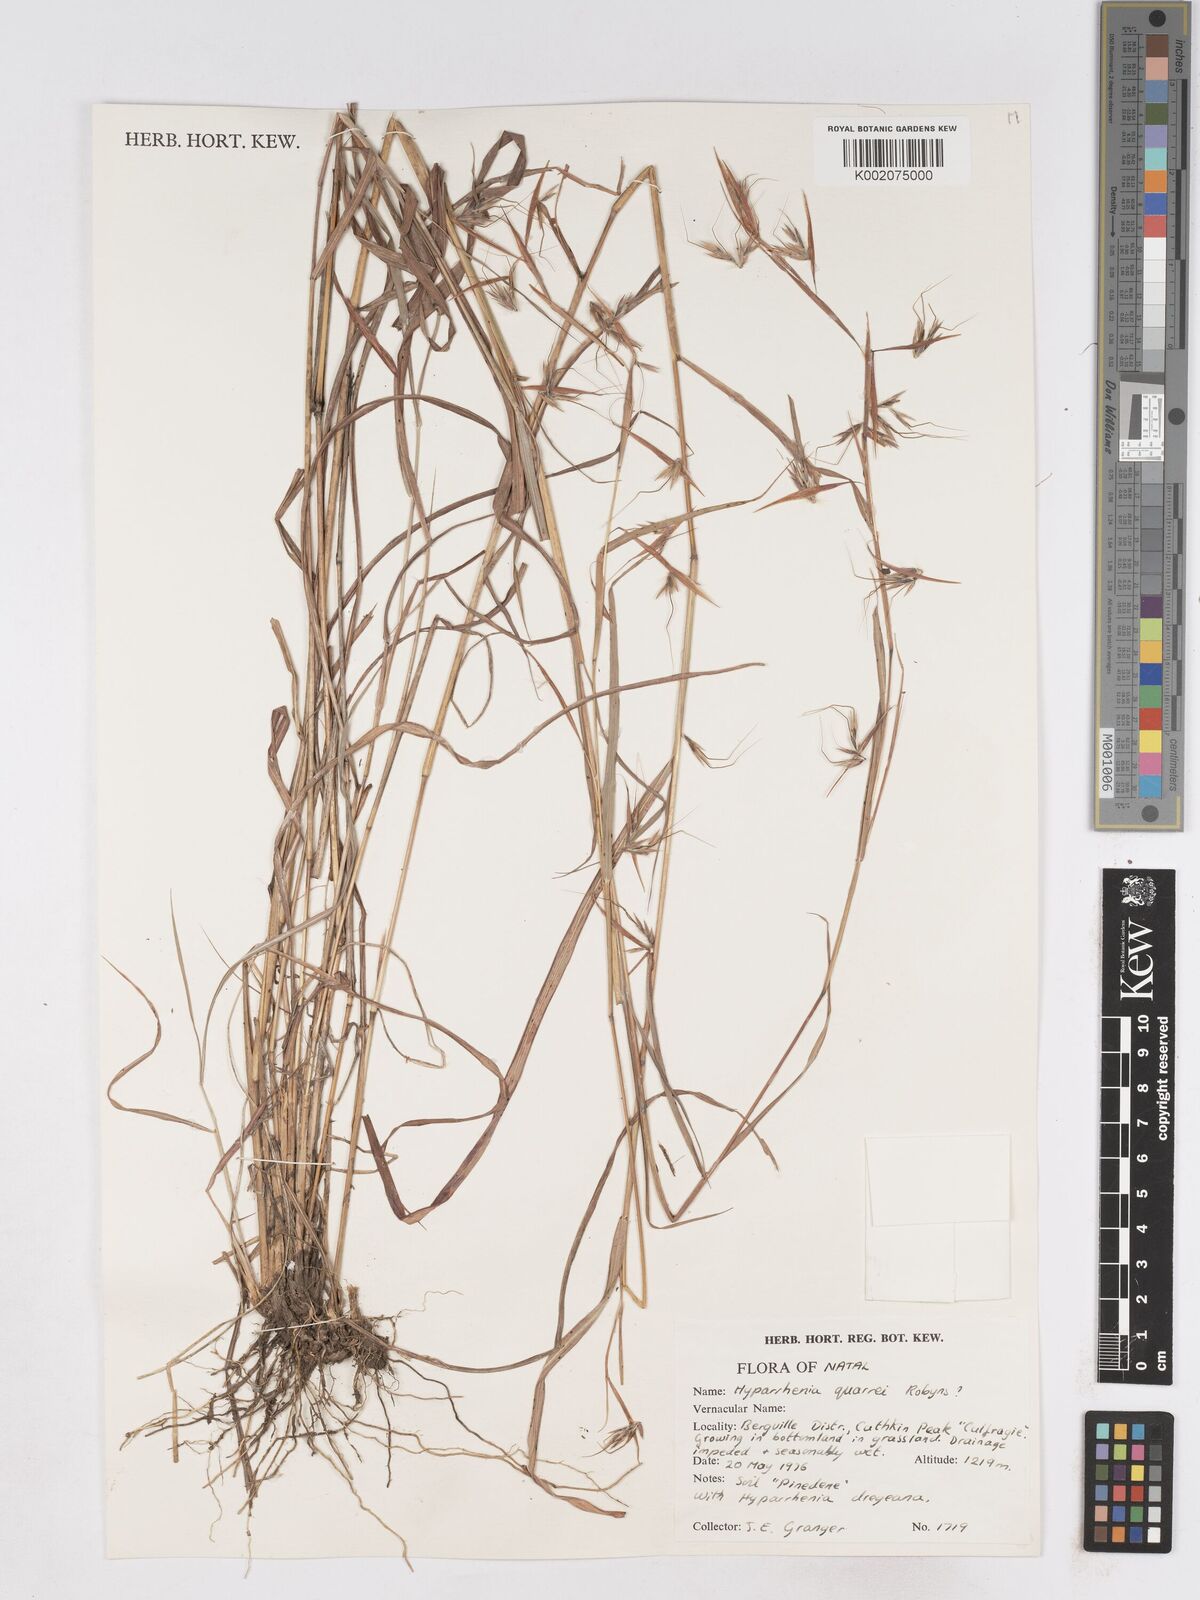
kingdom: Plantae
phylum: Tracheophyta
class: Liliopsida
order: Poales
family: Poaceae
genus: Hyparrhenia
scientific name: Hyparrhenia
